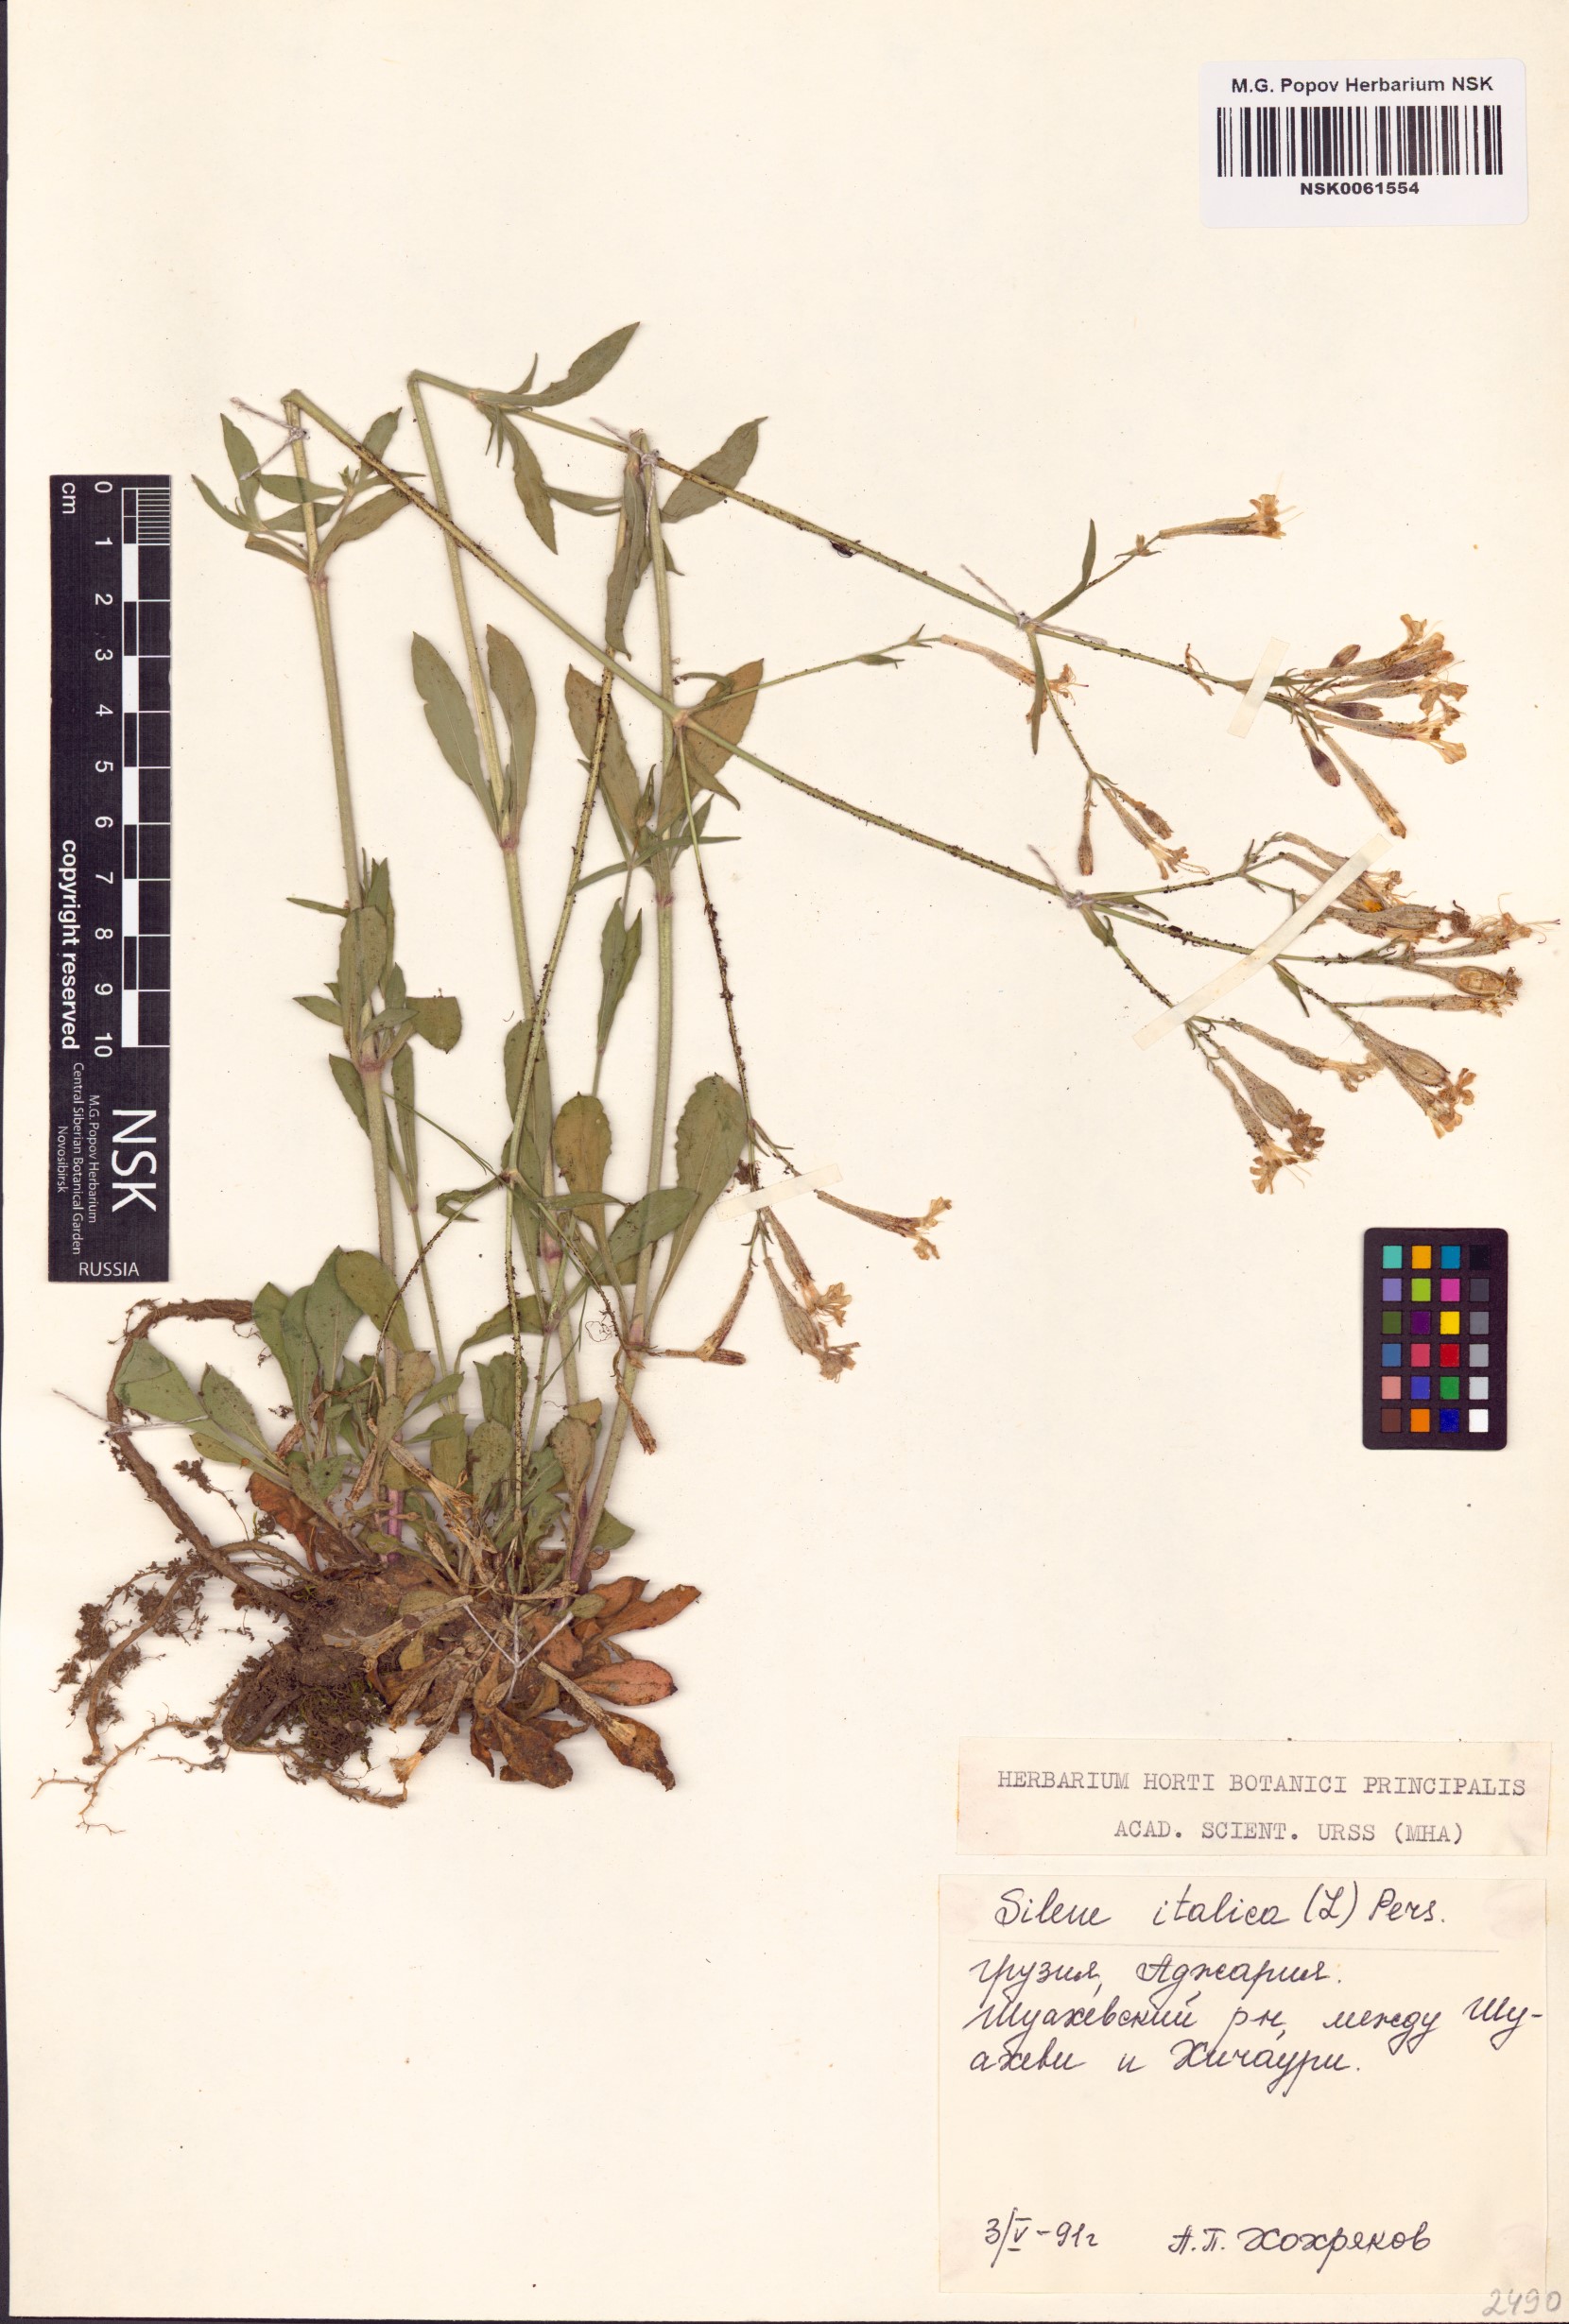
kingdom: Plantae
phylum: Tracheophyta
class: Magnoliopsida
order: Caryophyllales
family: Caryophyllaceae
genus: Silene
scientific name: Silene italica
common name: Italian catchfly
